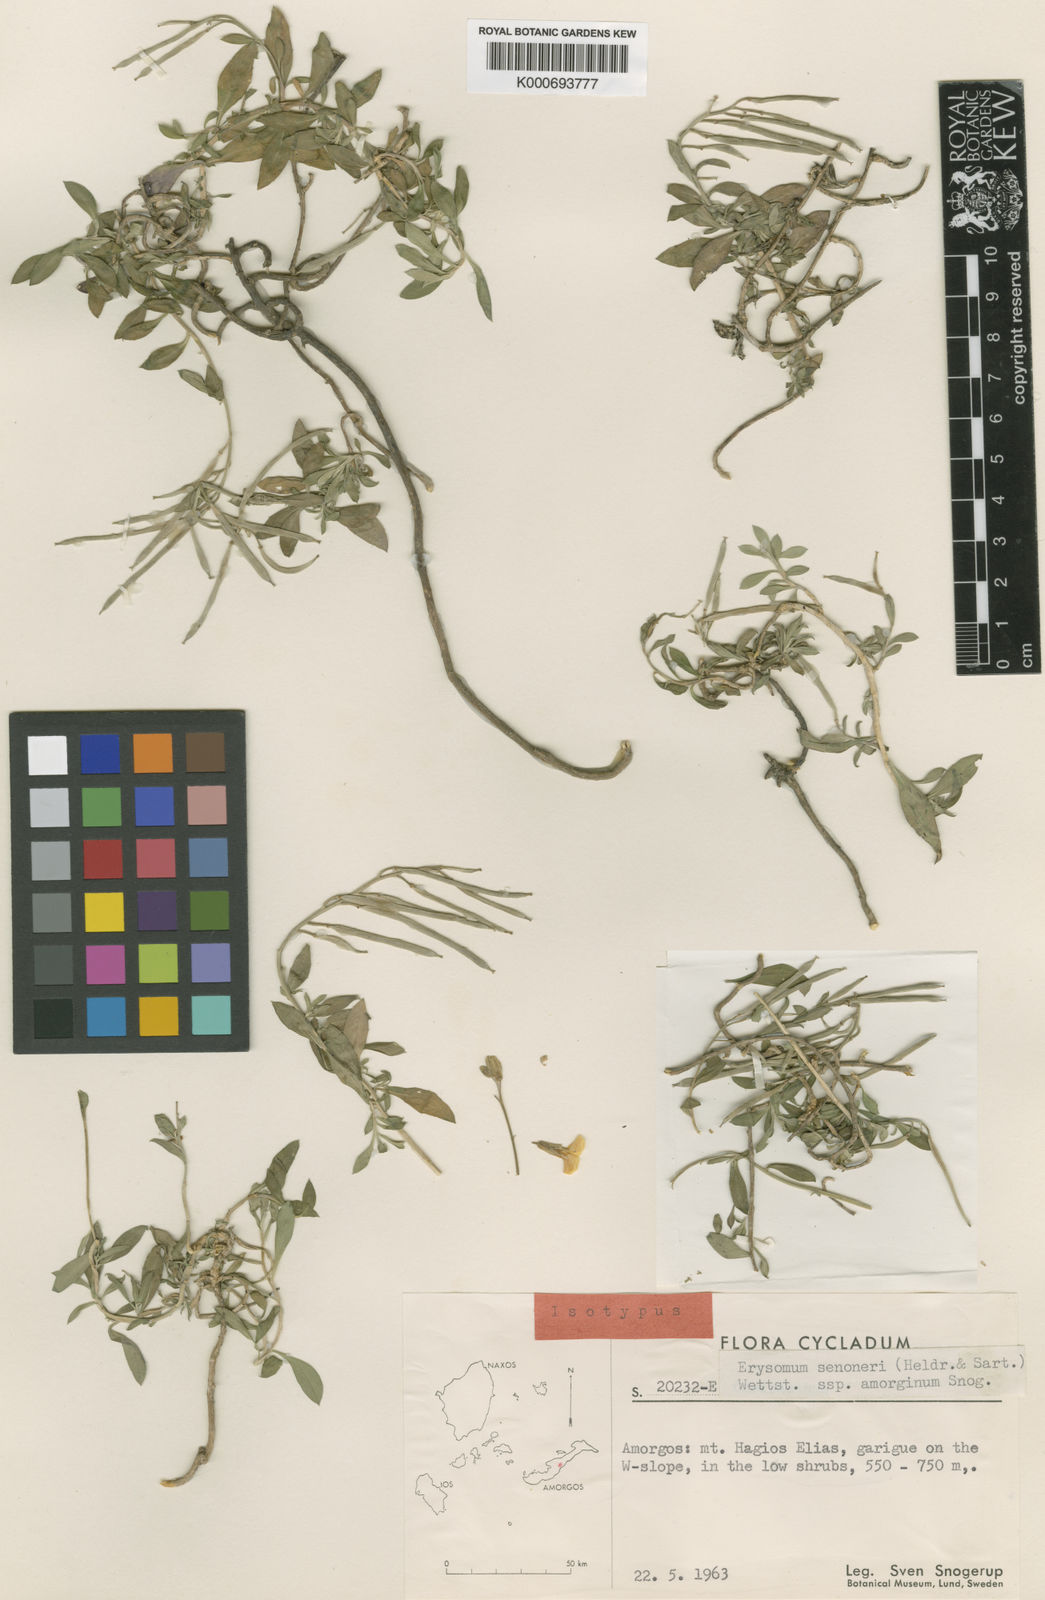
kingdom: Plantae
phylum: Tracheophyta
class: Magnoliopsida
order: Brassicales
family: Brassicaceae
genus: Erysimum
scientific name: Erysimum senoneri
